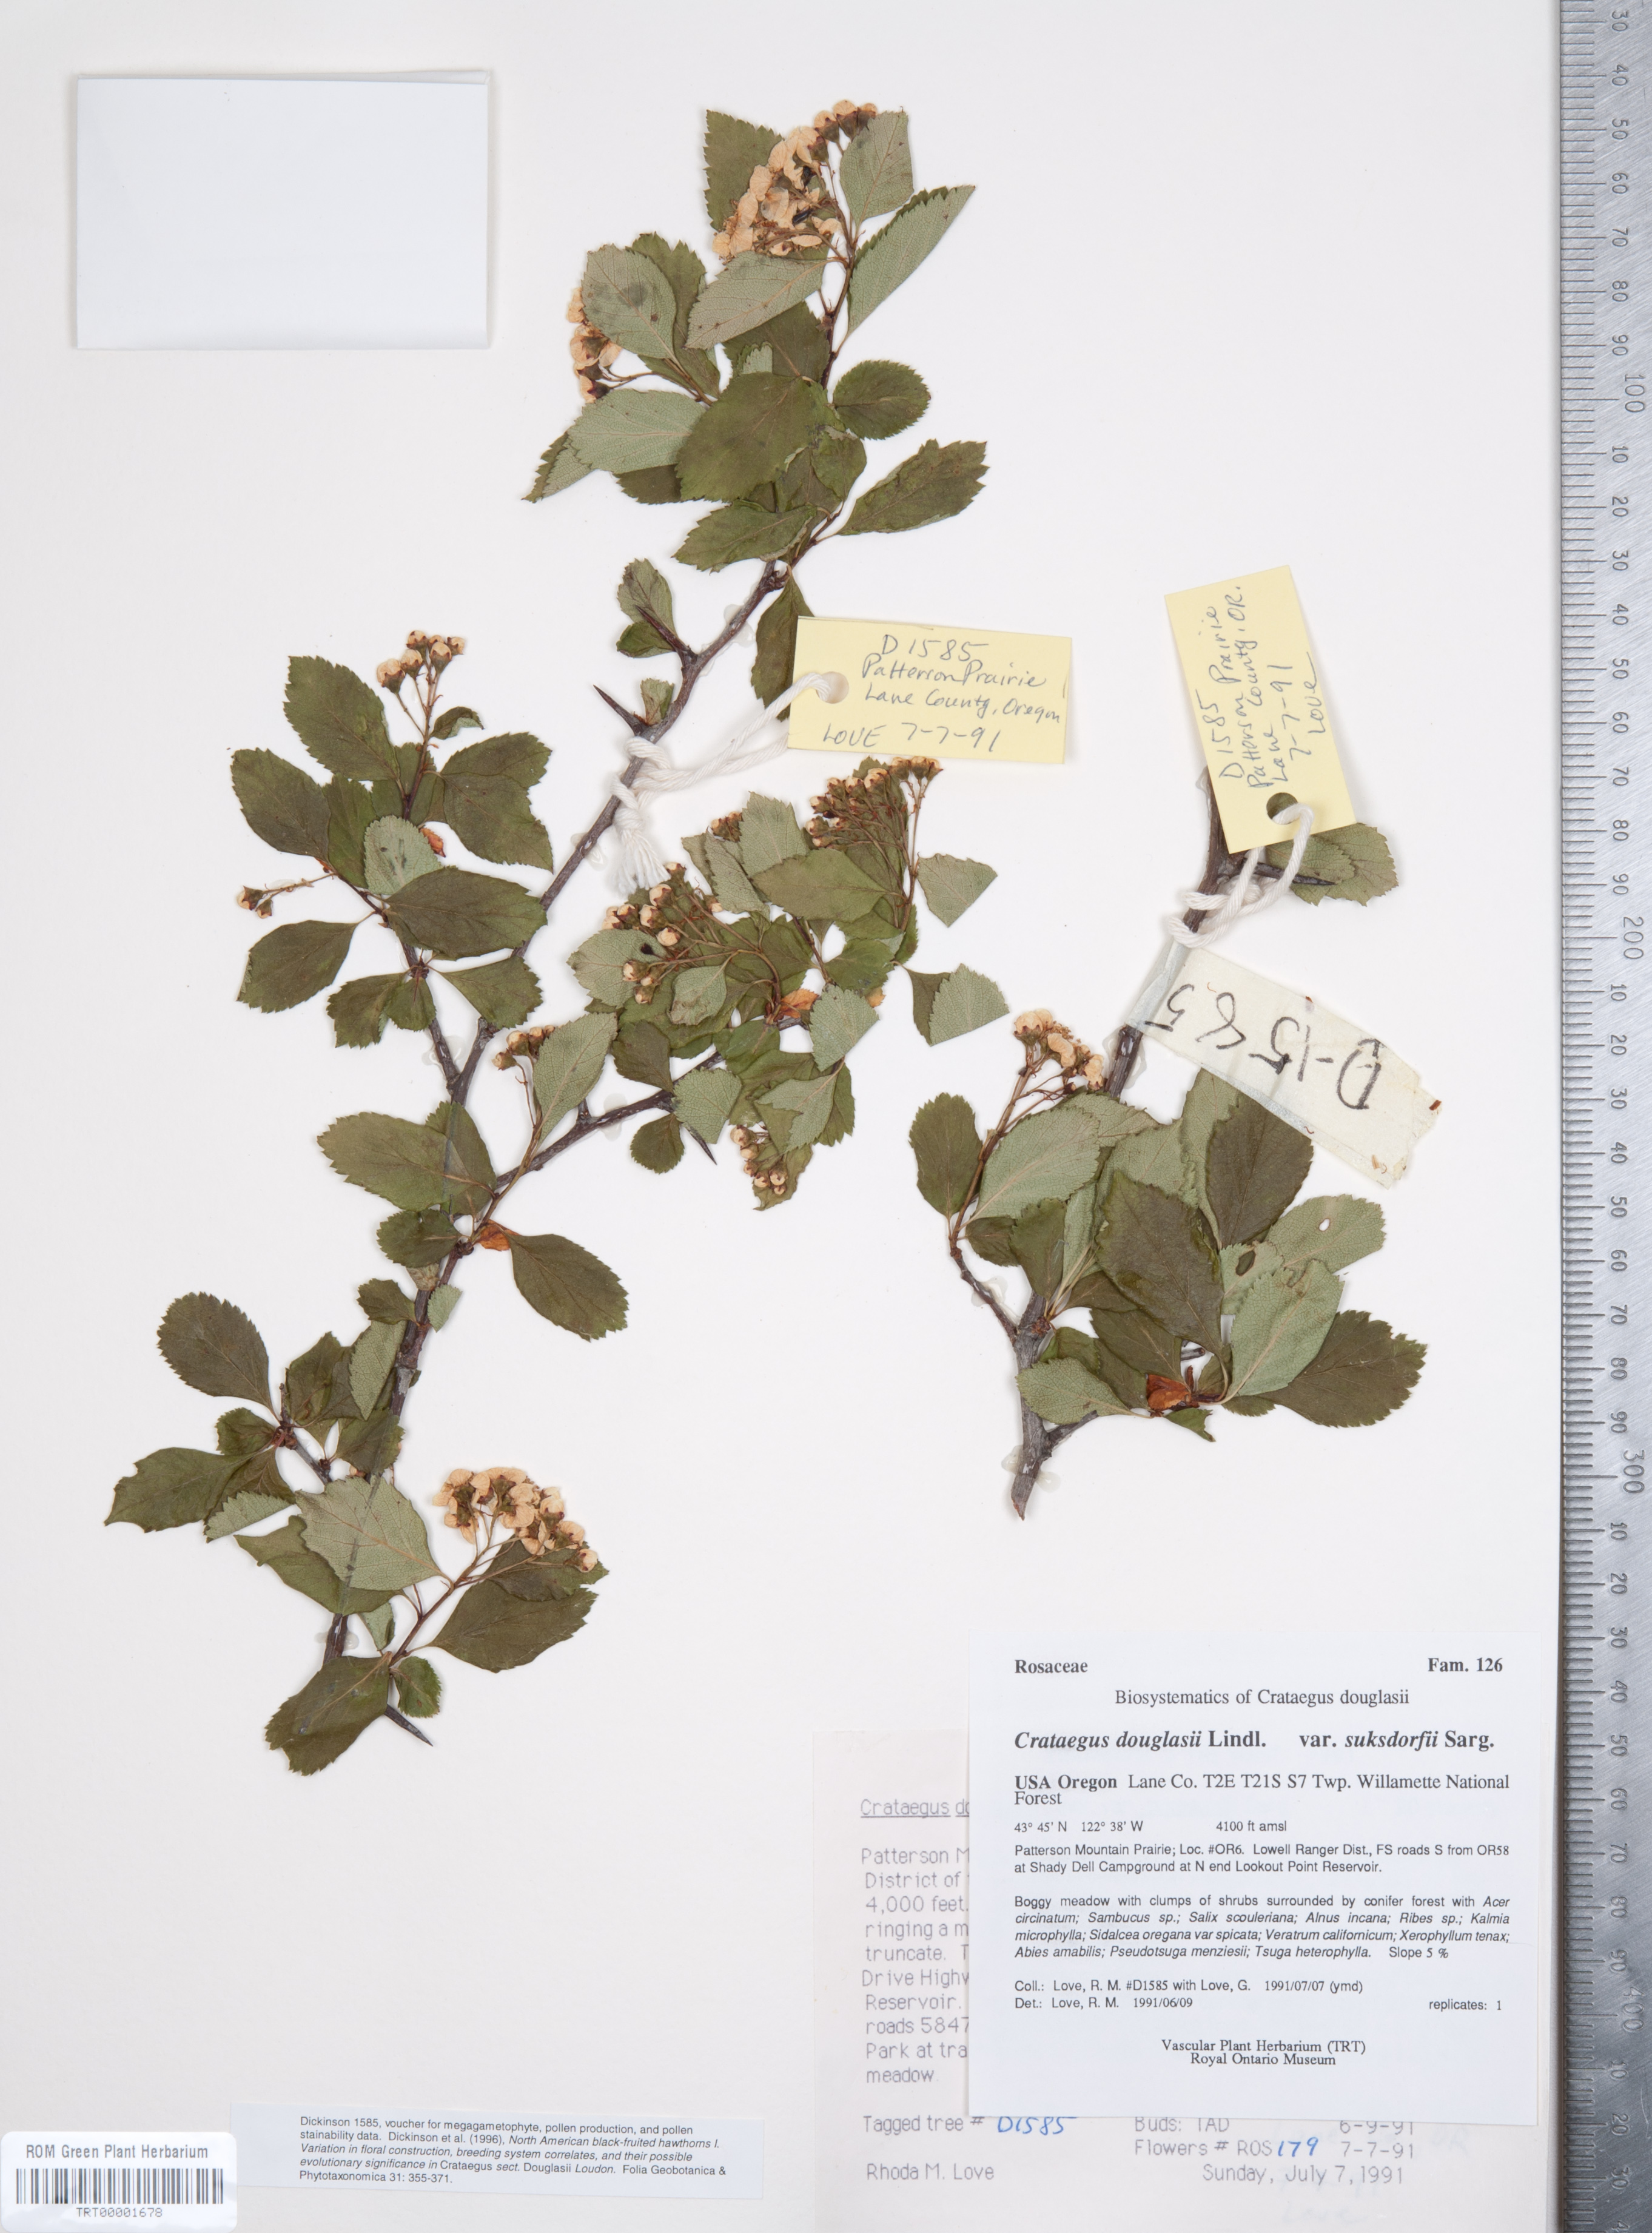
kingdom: Plantae
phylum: Tracheophyta
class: Magnoliopsida
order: Rosales
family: Rosaceae
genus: Crataegus
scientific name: Crataegus gaylussacia
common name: Huckleberry hawthorn
